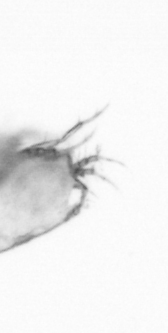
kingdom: Animalia
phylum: Arthropoda
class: Copepoda
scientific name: Copepoda
